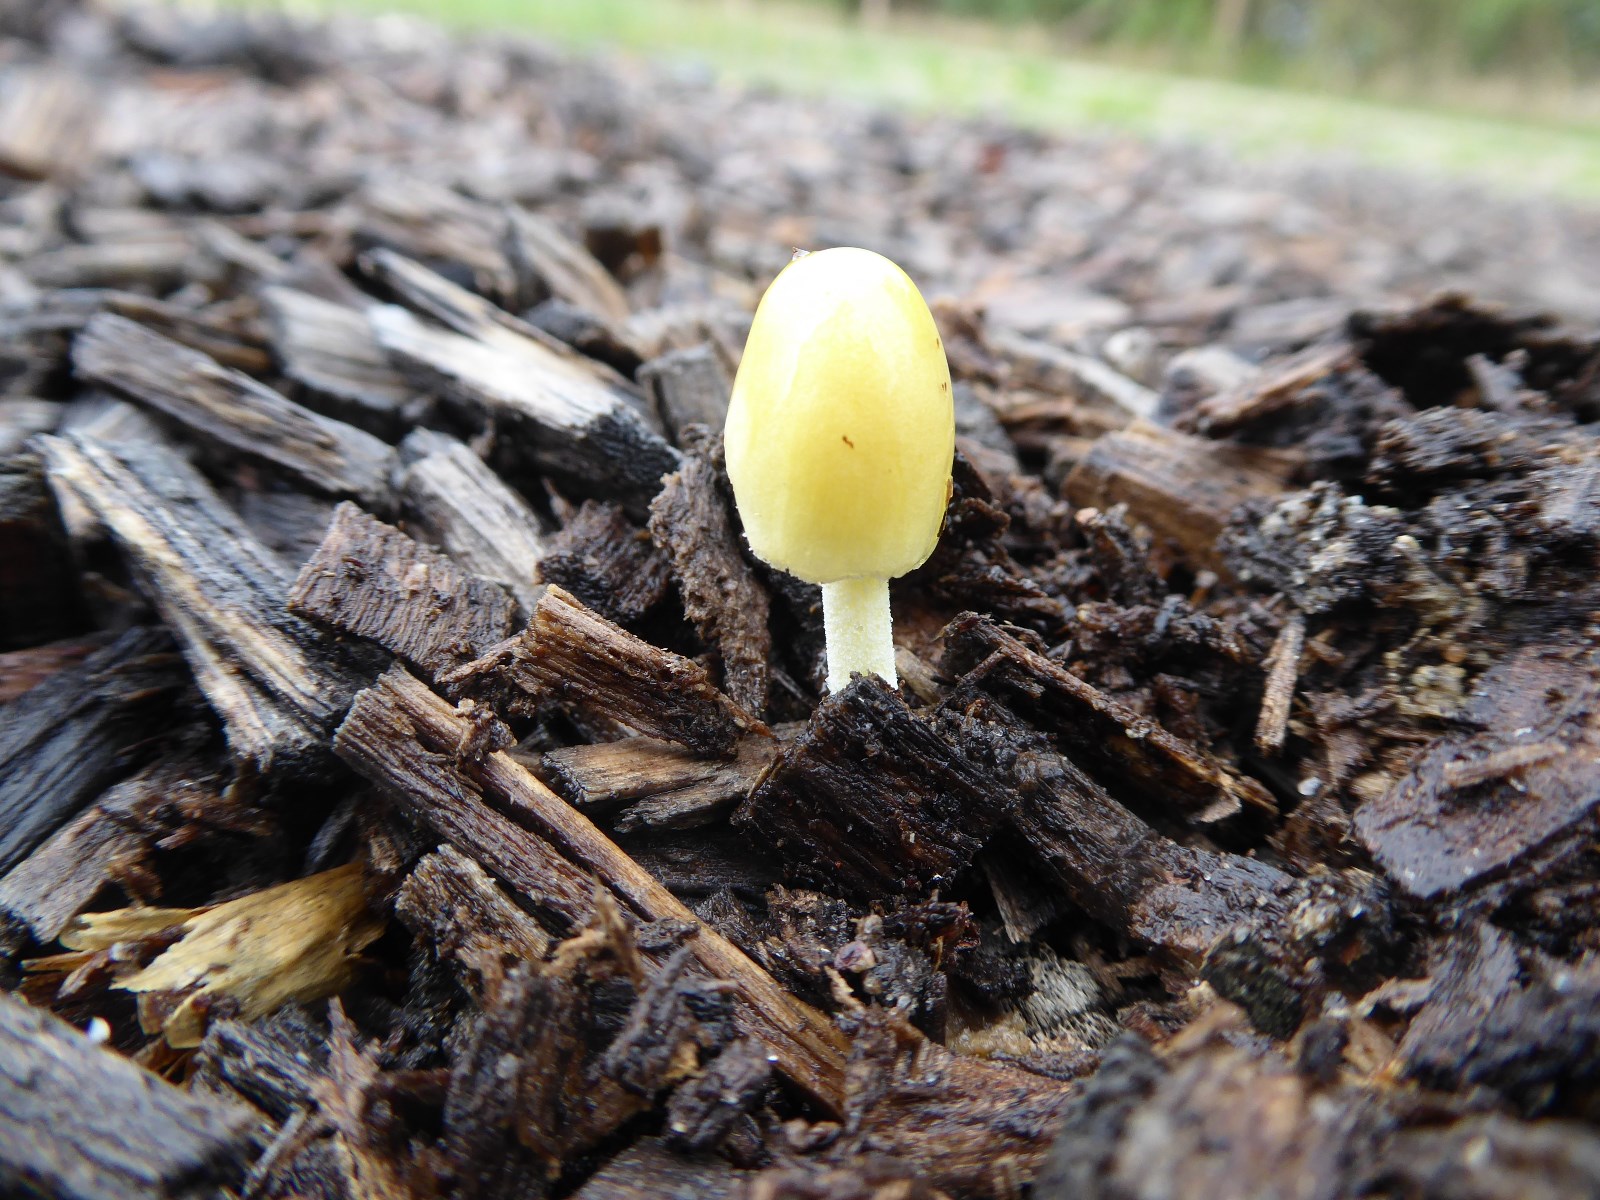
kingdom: Fungi
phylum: Basidiomycota
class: Agaricomycetes
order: Agaricales
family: Bolbitiaceae
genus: Bolbitius
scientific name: Bolbitius titubans
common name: almindelig gulhat
